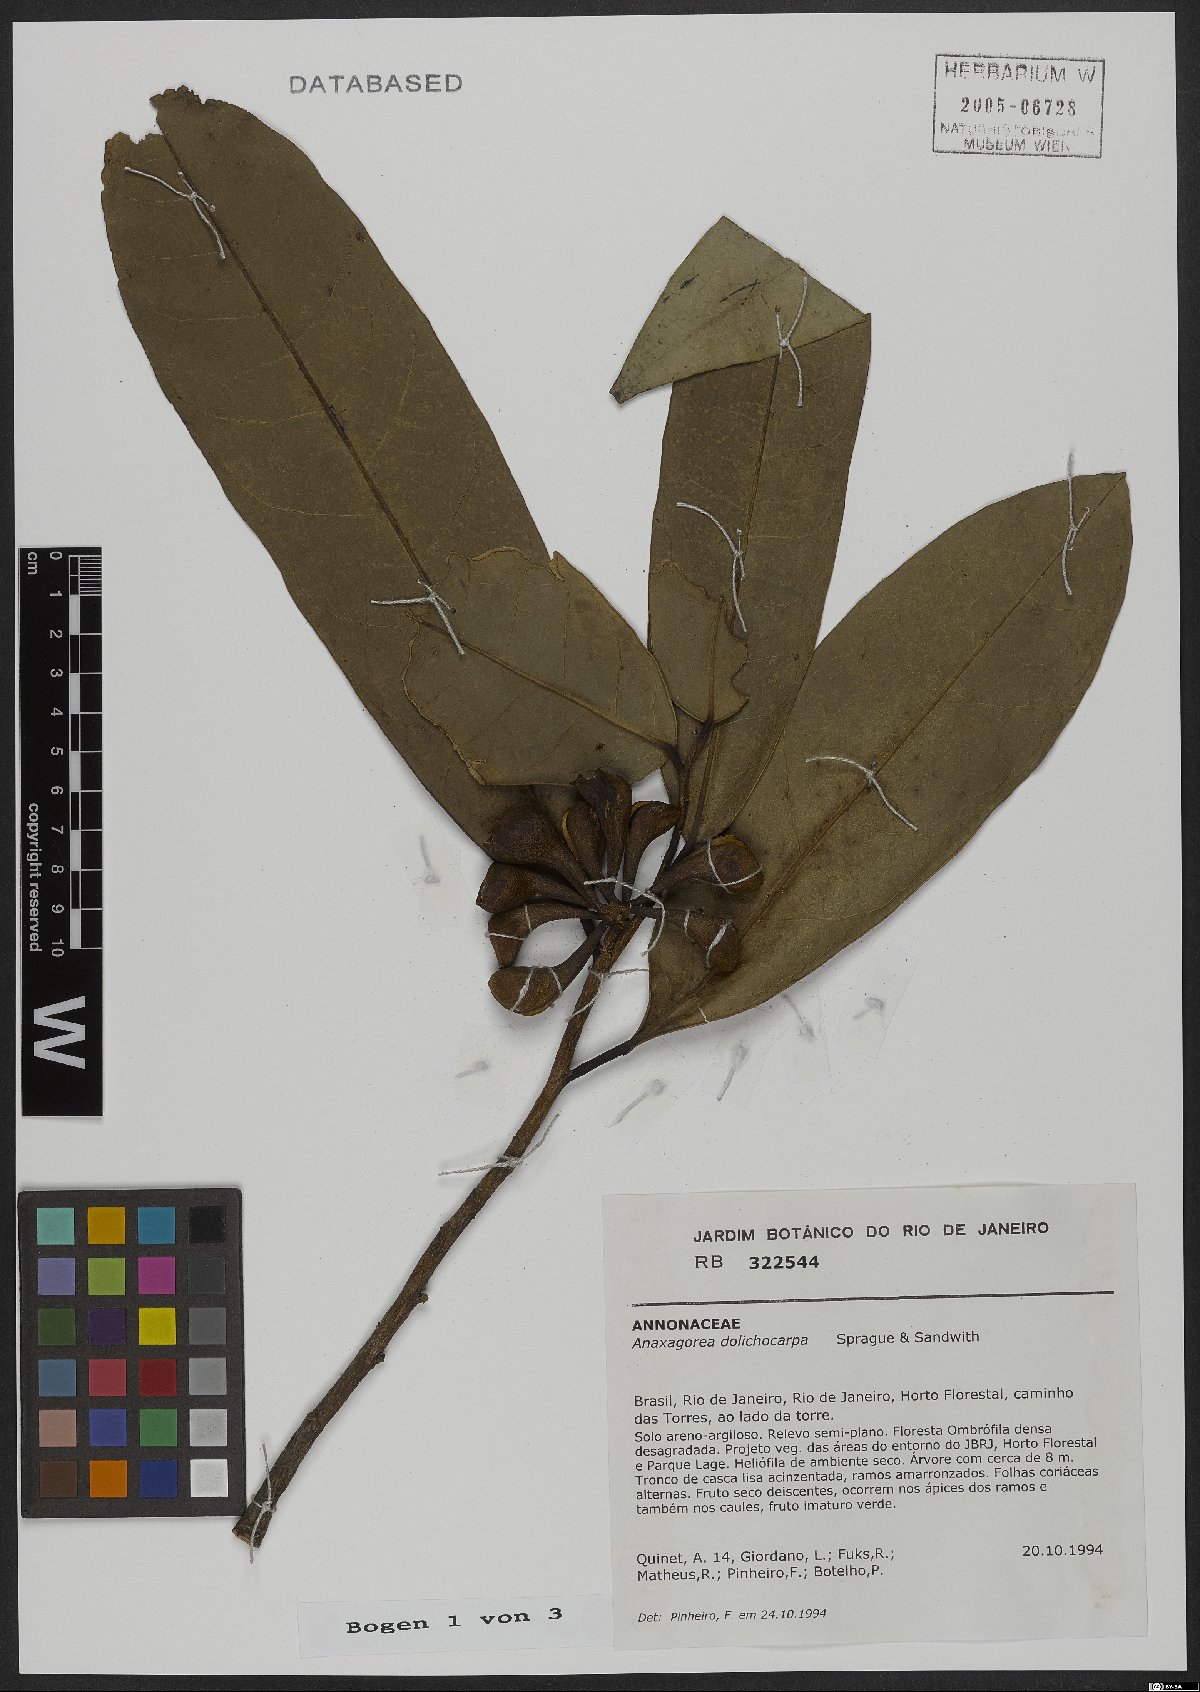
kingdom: Plantae
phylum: Tracheophyta
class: Magnoliopsida
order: Magnoliales
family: Annonaceae
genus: Anaxagorea
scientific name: Anaxagorea dolichocarpa
